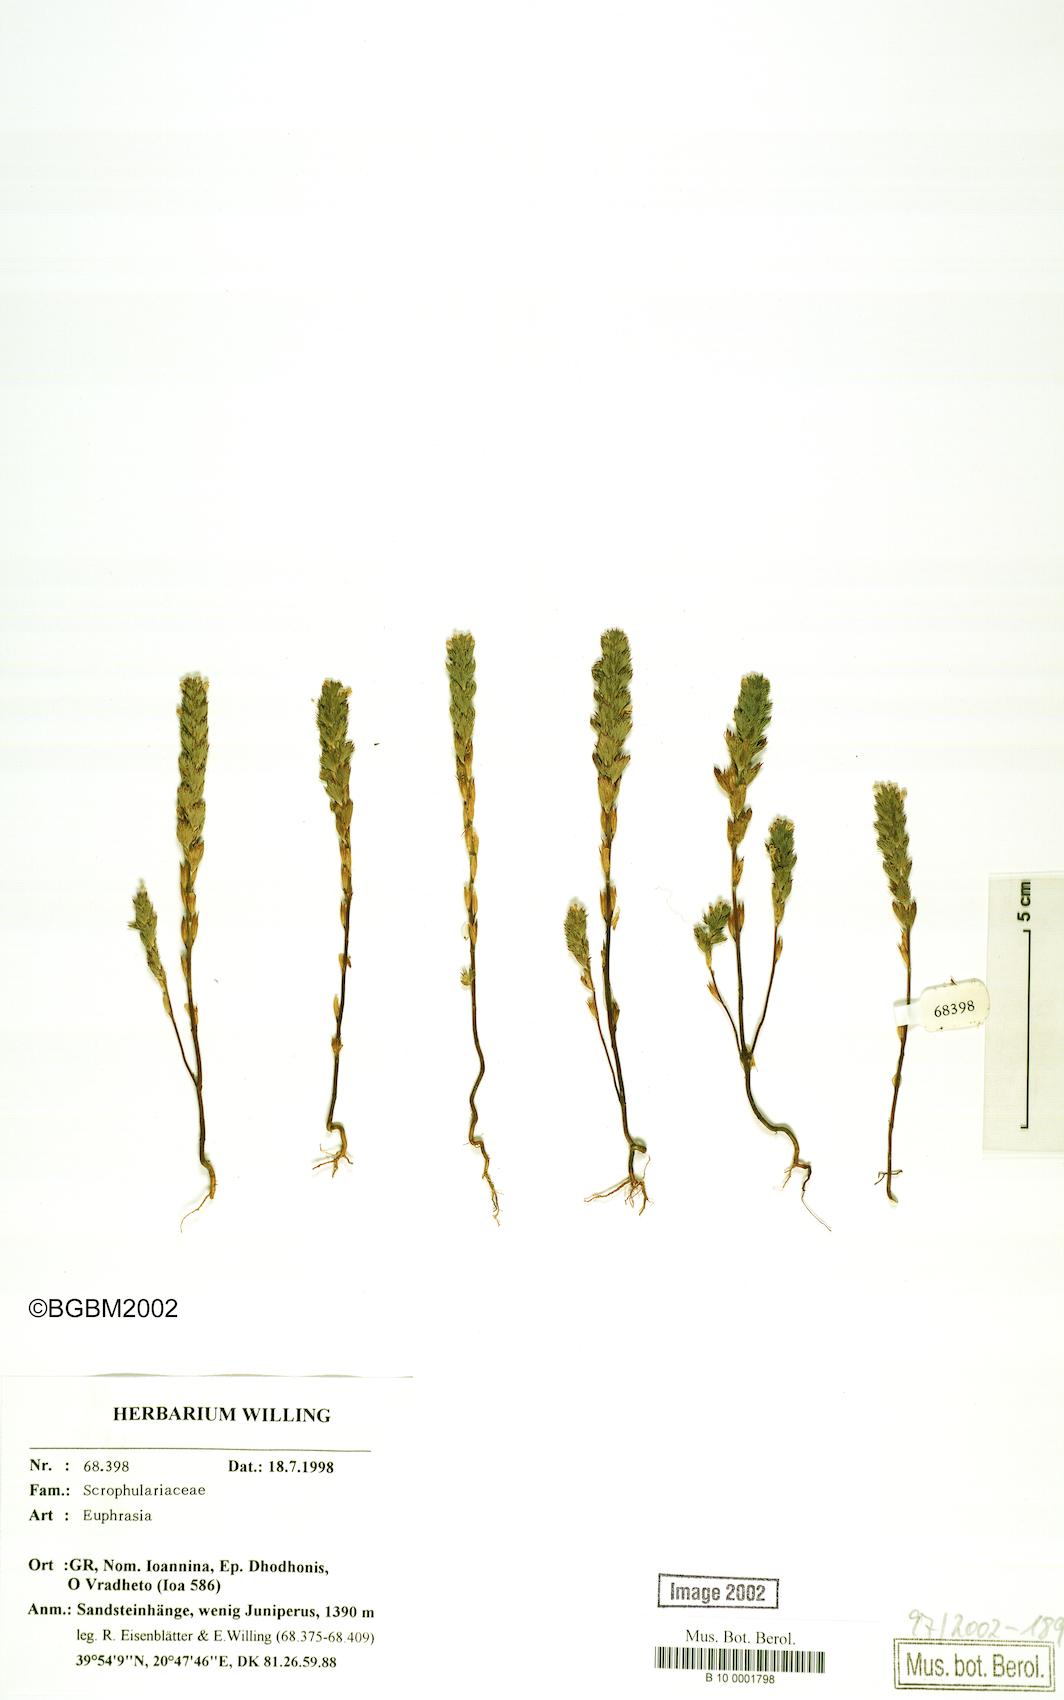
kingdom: Plantae
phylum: Tracheophyta
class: Magnoliopsida
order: Lamiales
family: Orobanchaceae
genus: Euphrasia
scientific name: Euphrasia
